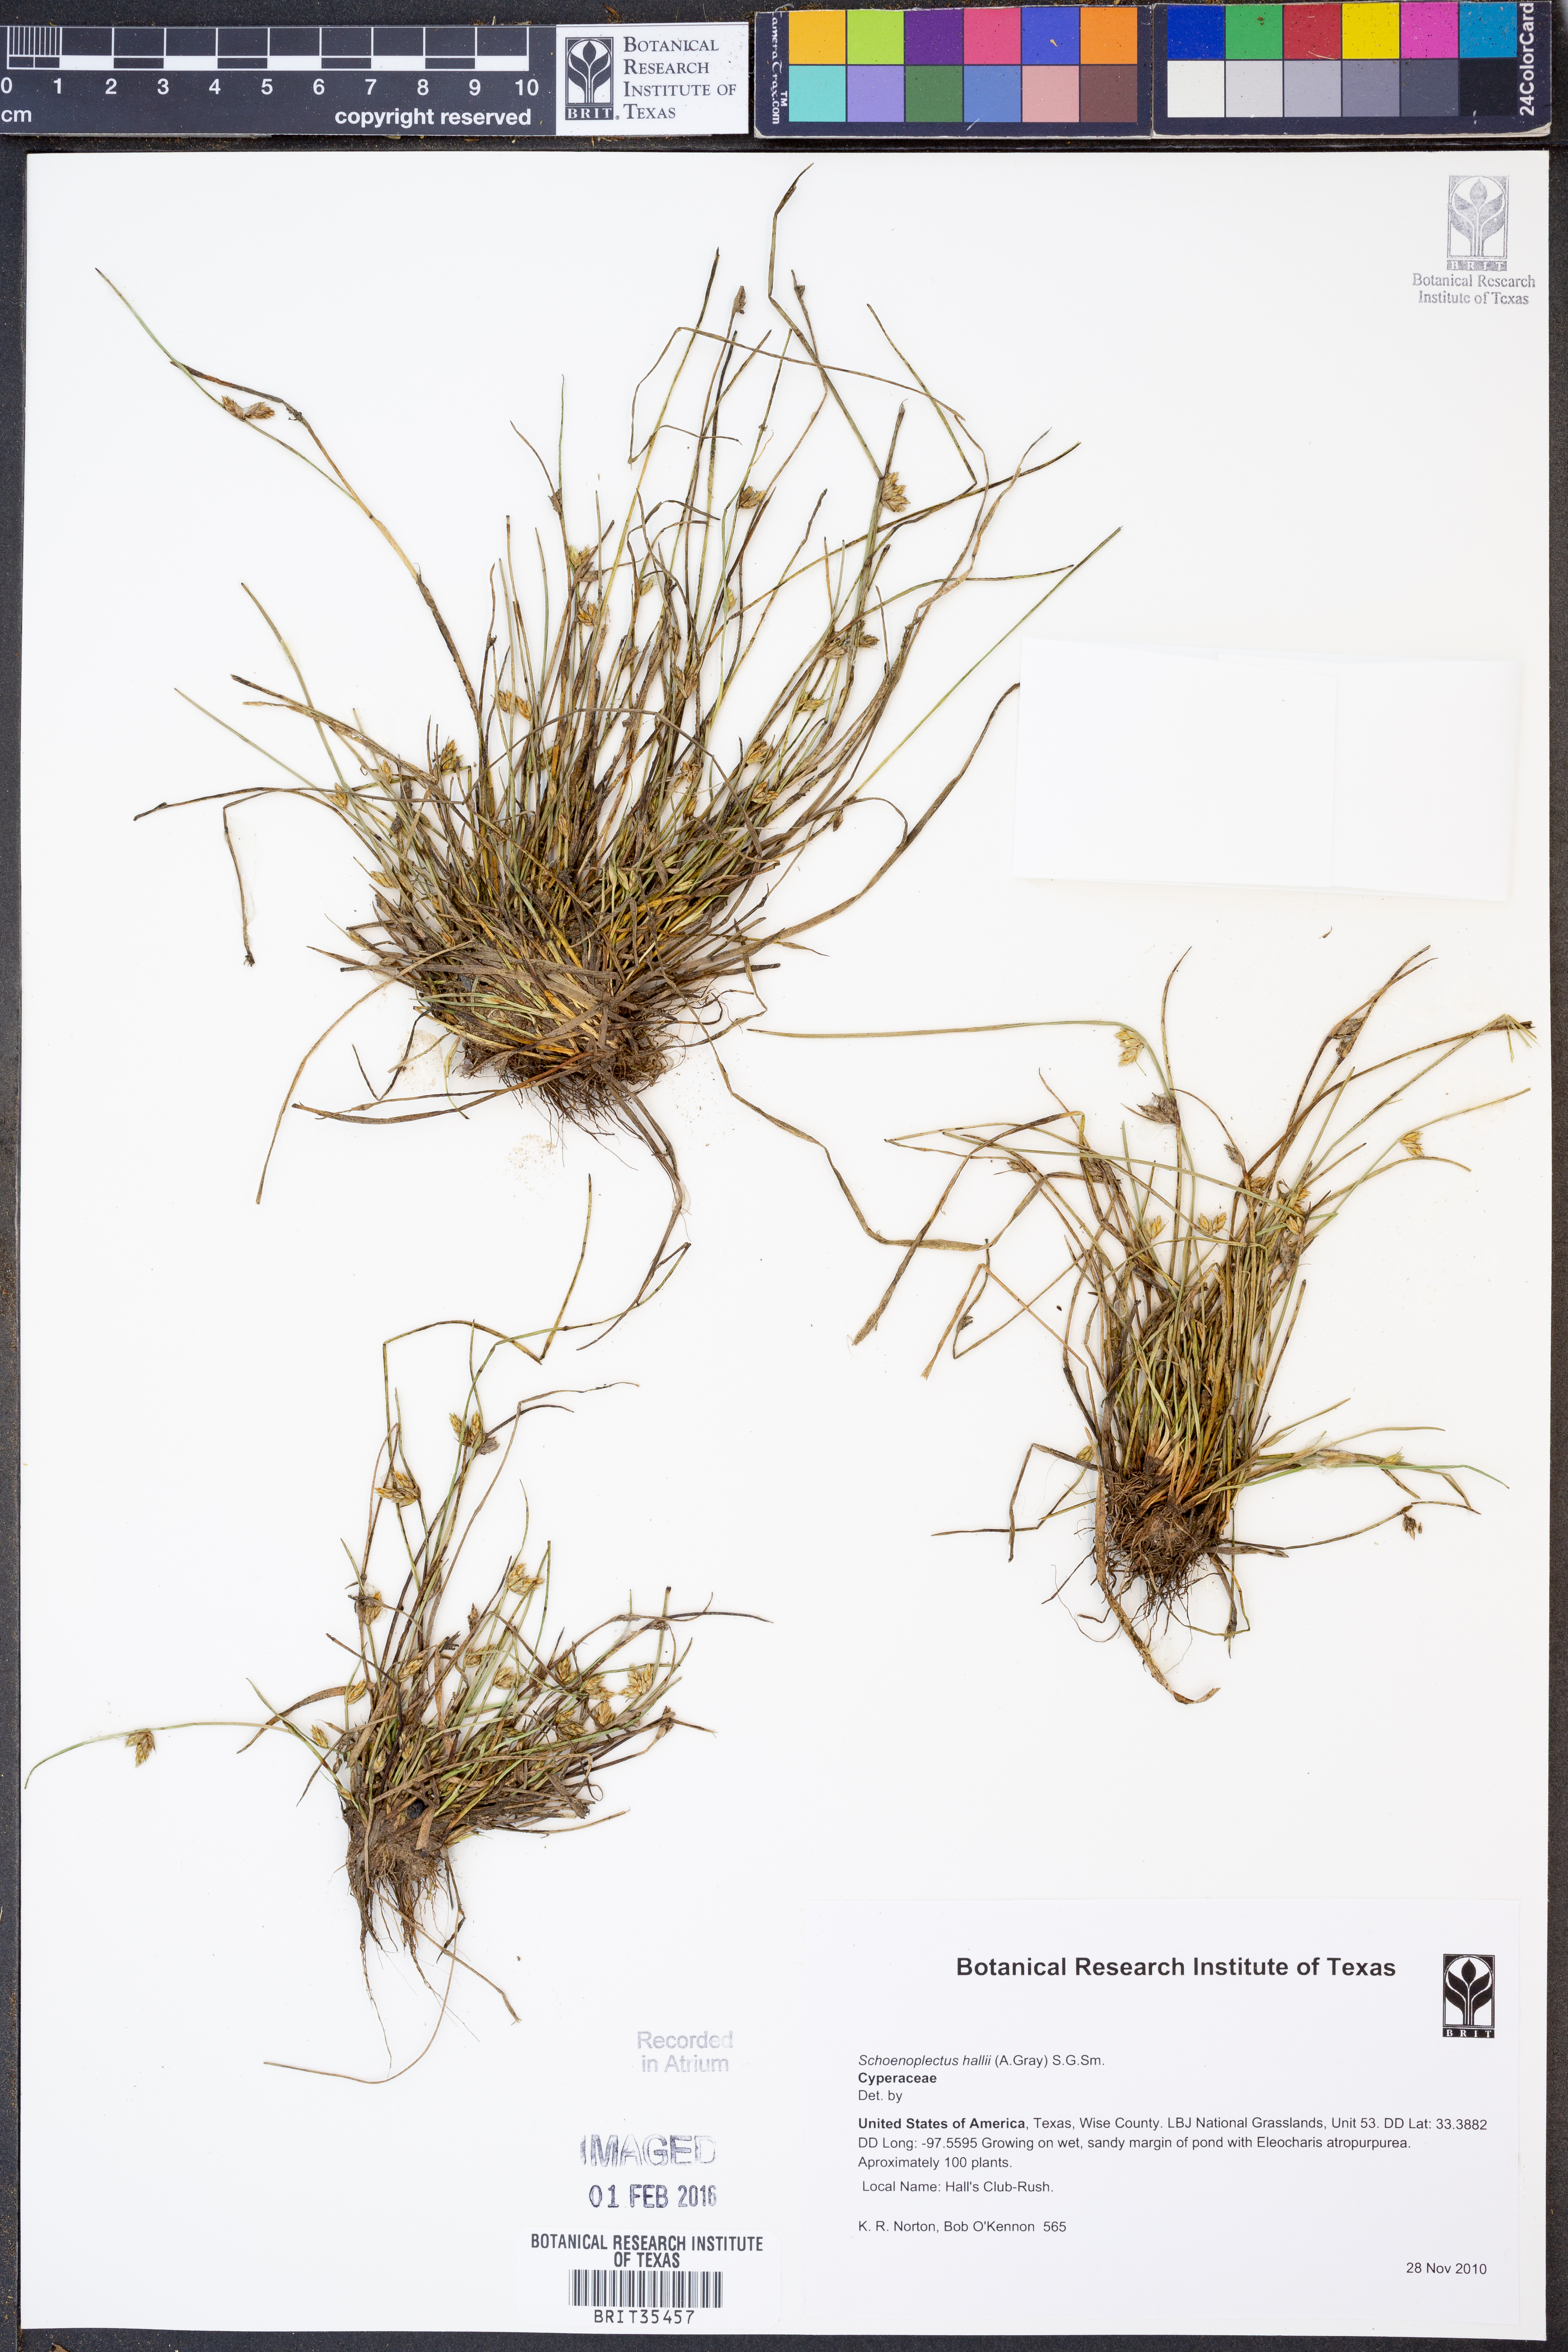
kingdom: Plantae
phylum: Tracheophyta
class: Liliopsida
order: Poales
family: Cyperaceae
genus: Schoenoplectiella
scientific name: Schoenoplectiella hallii
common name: Hall's bullrush
